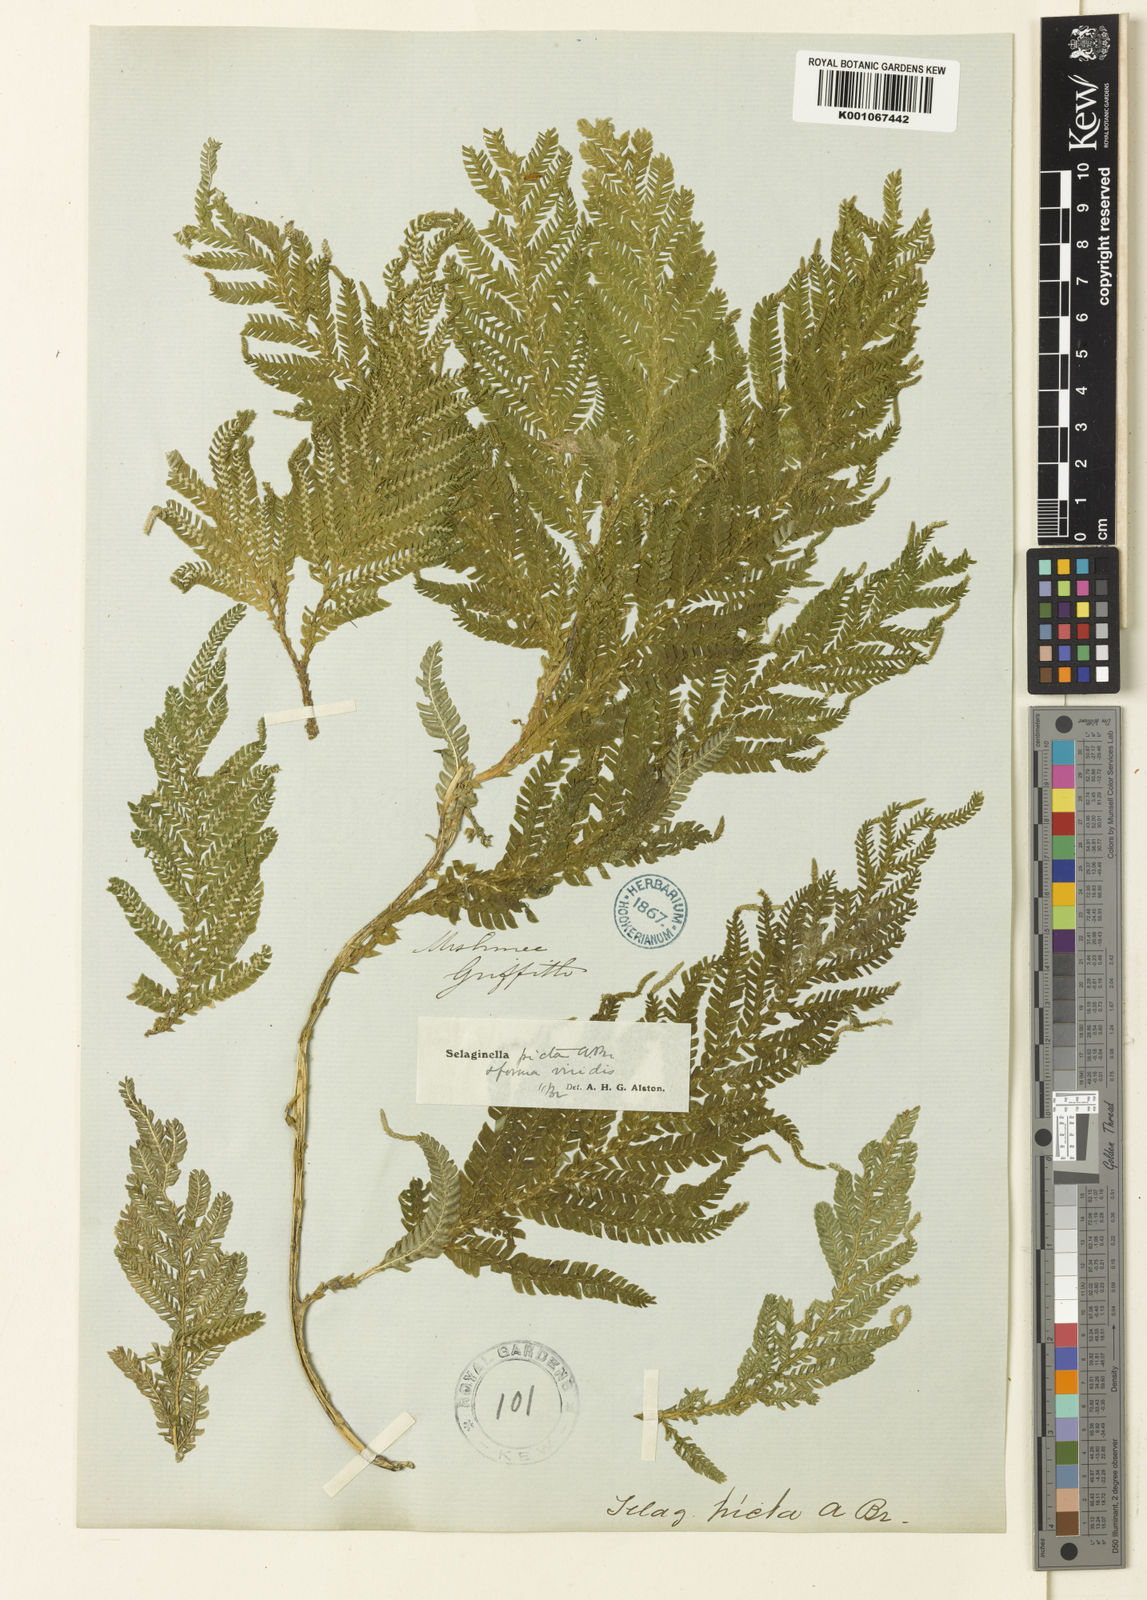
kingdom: Plantae
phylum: Tracheophyta
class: Lycopodiopsida
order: Selaginellales
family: Selaginellaceae
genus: Selaginella
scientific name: Selaginella picta
